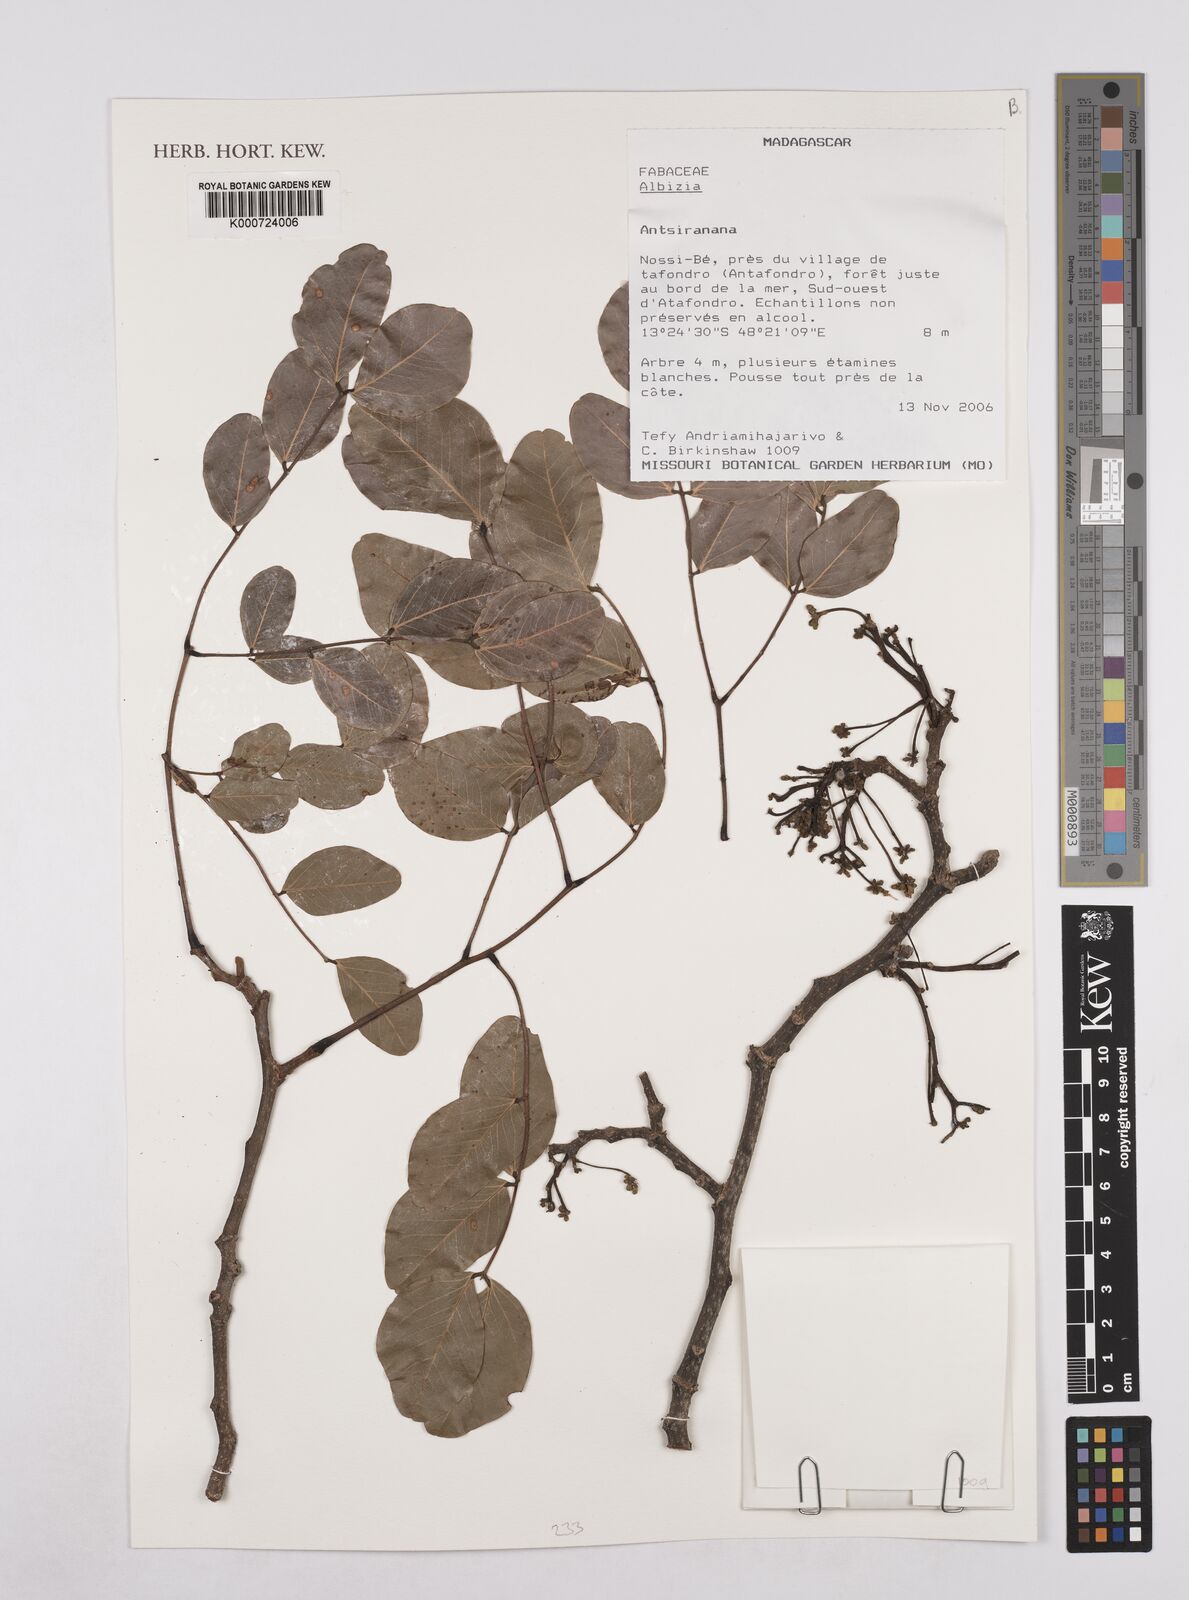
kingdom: Plantae
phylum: Tracheophyta
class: Magnoliopsida
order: Fabales
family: Fabaceae
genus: Albizia
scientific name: Albizia
